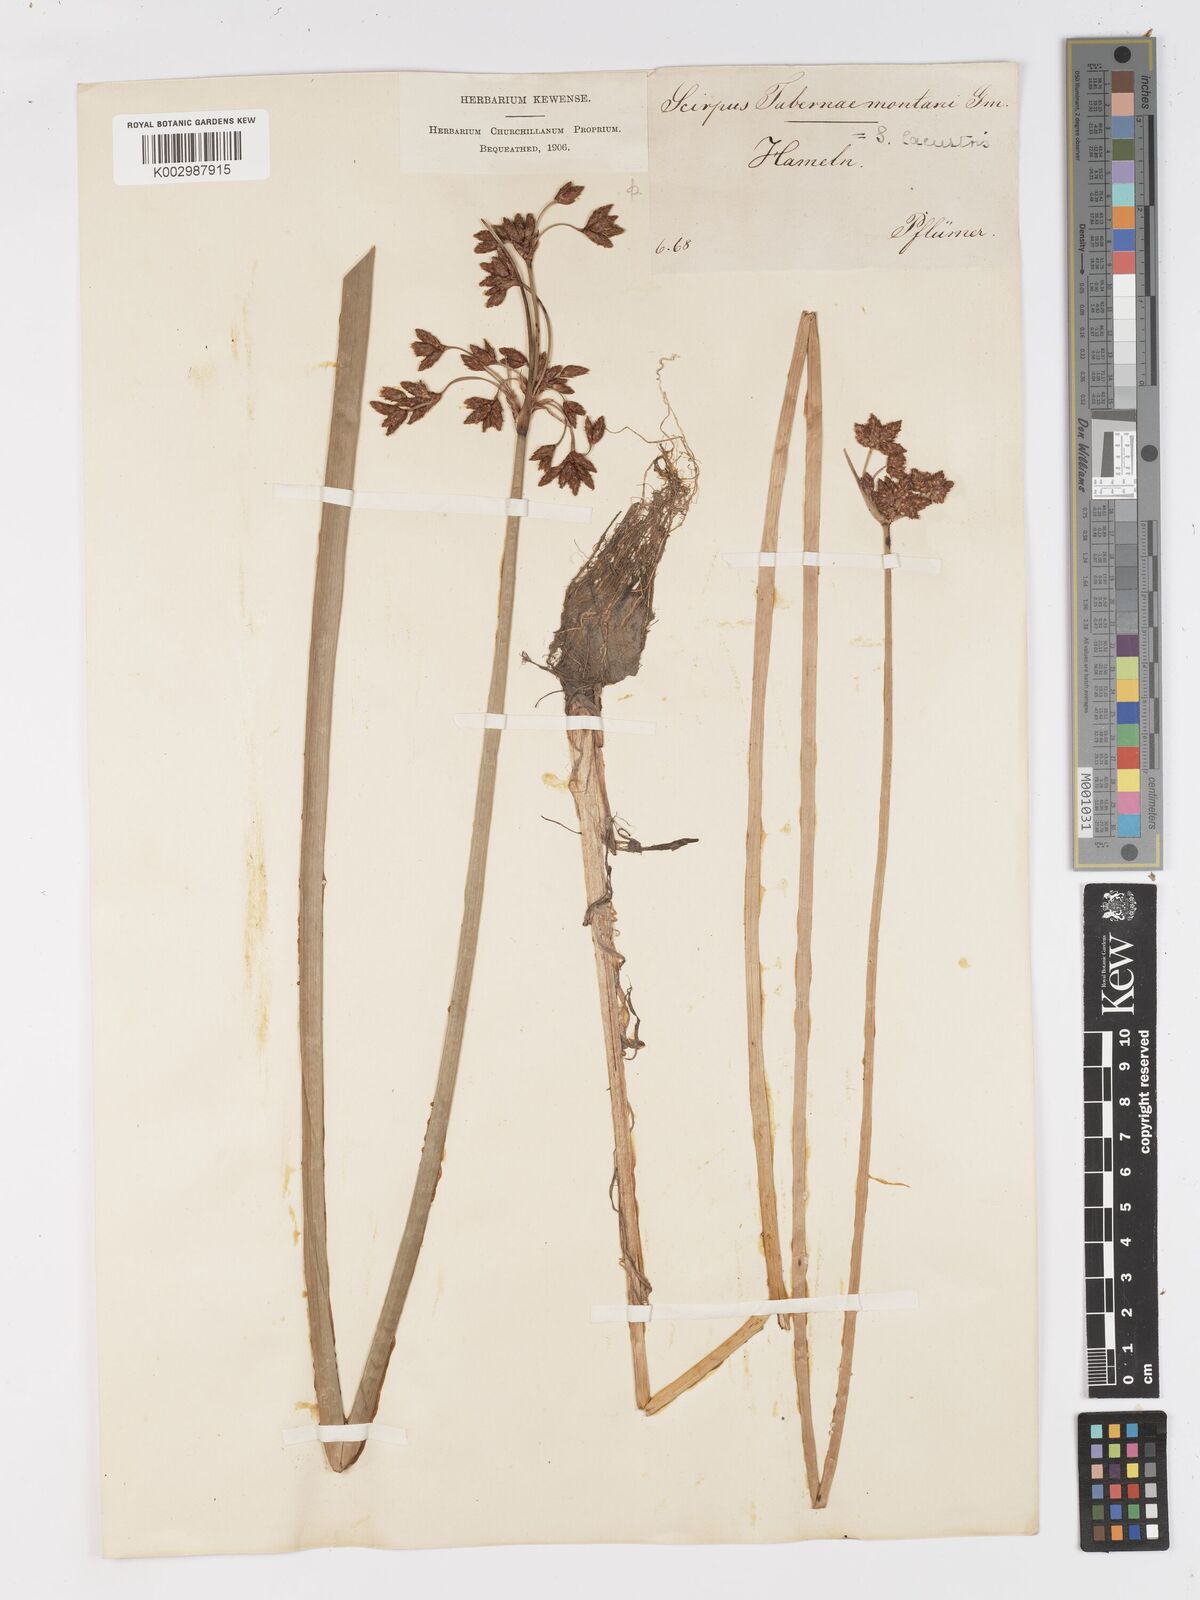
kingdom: Plantae
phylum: Tracheophyta
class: Liliopsida
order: Poales
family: Cyperaceae
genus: Schoenoplectus
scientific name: Schoenoplectus tabernaemontani
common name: Grey club-rush
